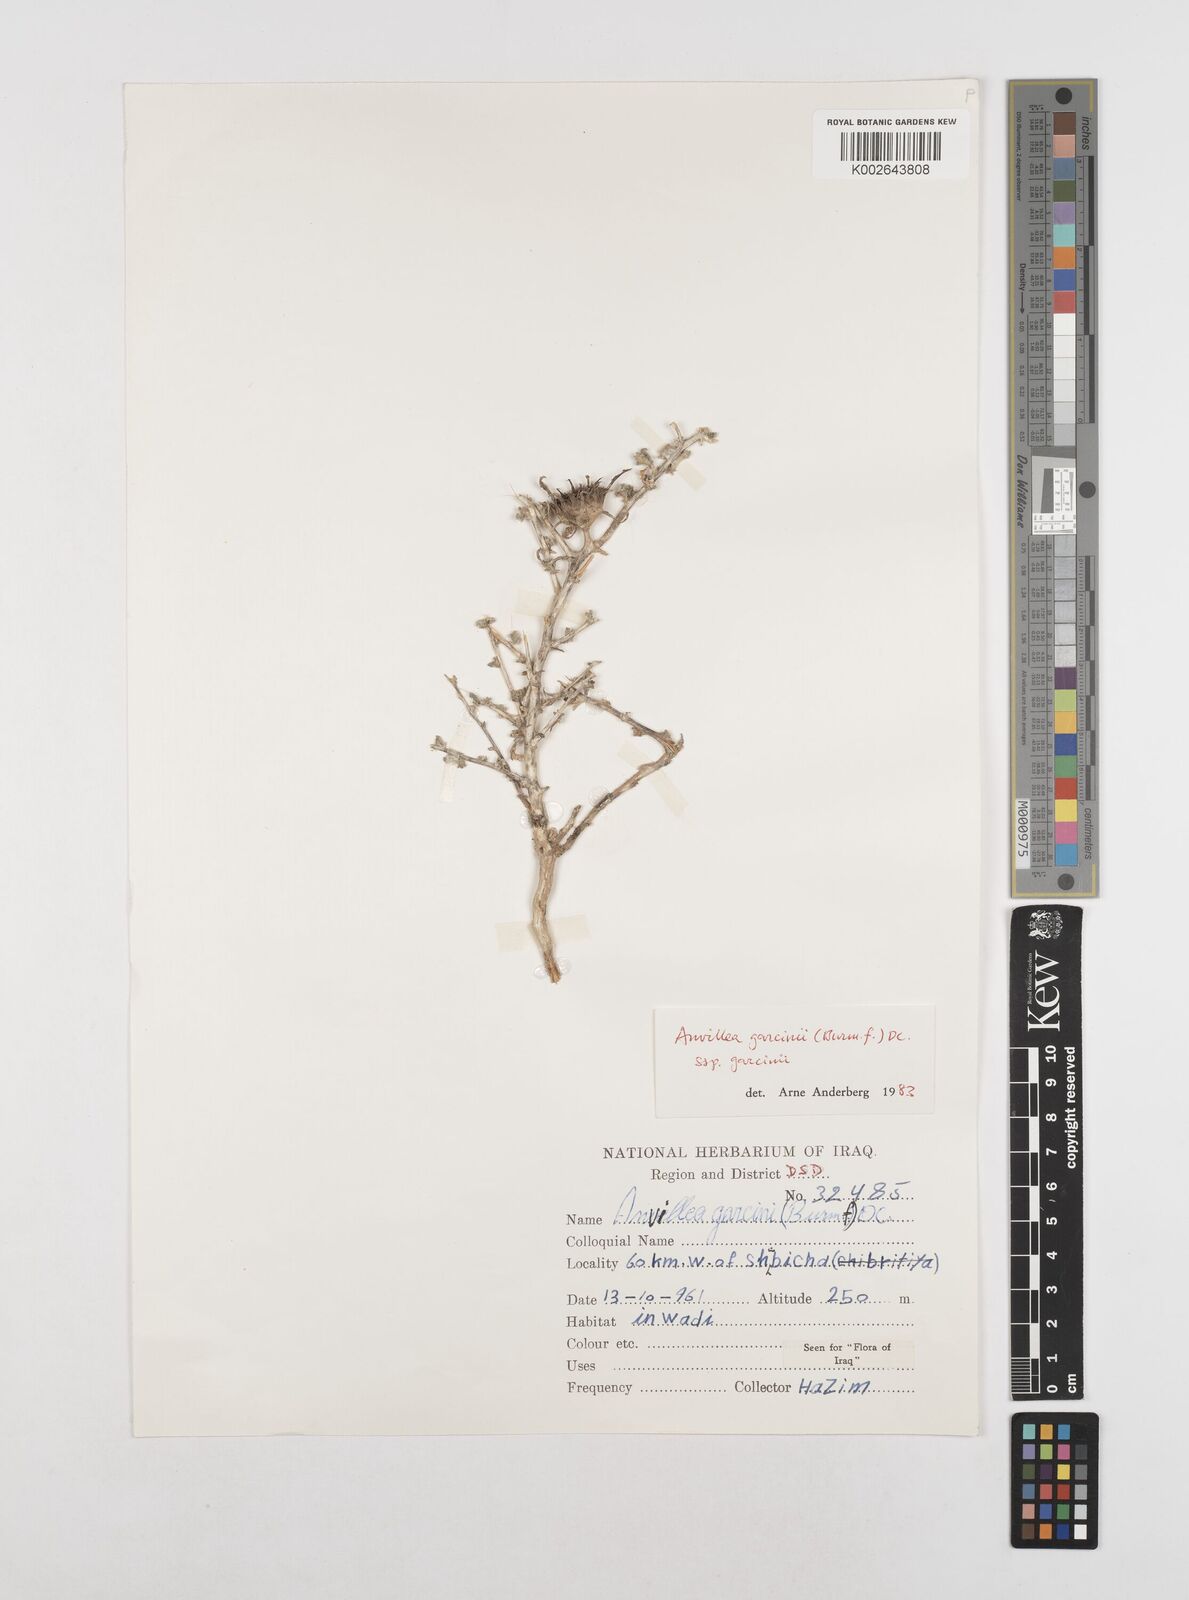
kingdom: Plantae
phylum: Tracheophyta
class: Magnoliopsida
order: Asterales
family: Asteraceae
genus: Anvillea
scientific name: Anvillea garcinii
